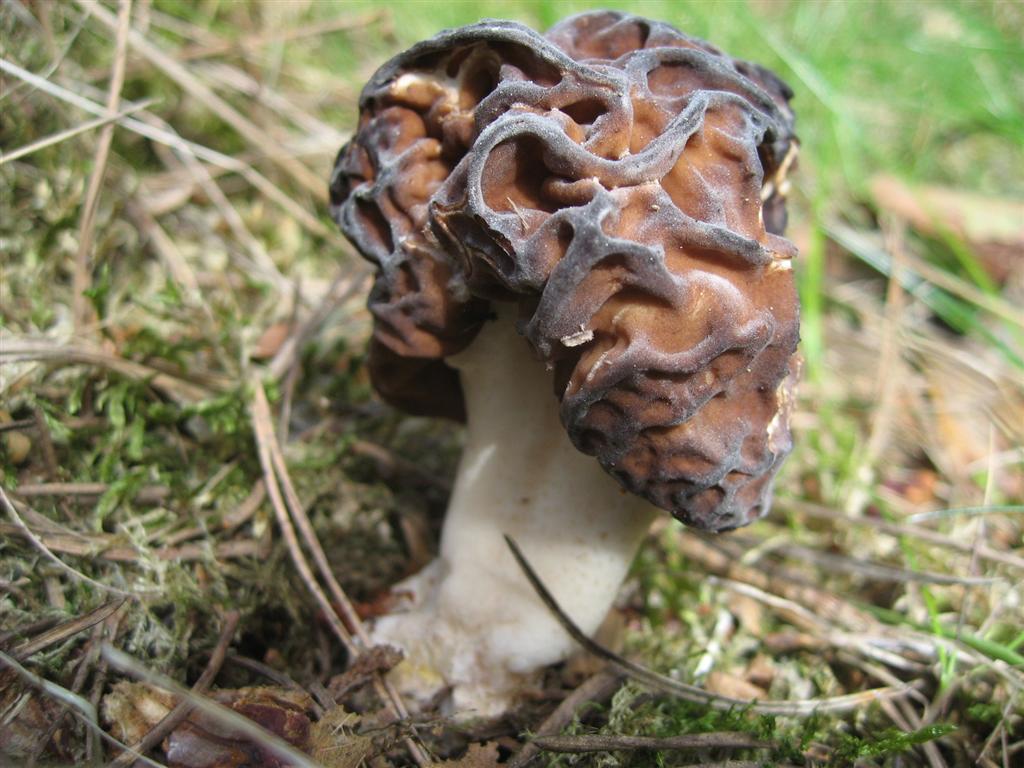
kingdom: Fungi
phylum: Ascomycota
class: Pezizomycetes
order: Pezizales
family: Discinaceae
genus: Gyromitra
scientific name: Gyromitra esculenta
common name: ægte stenmorkel
